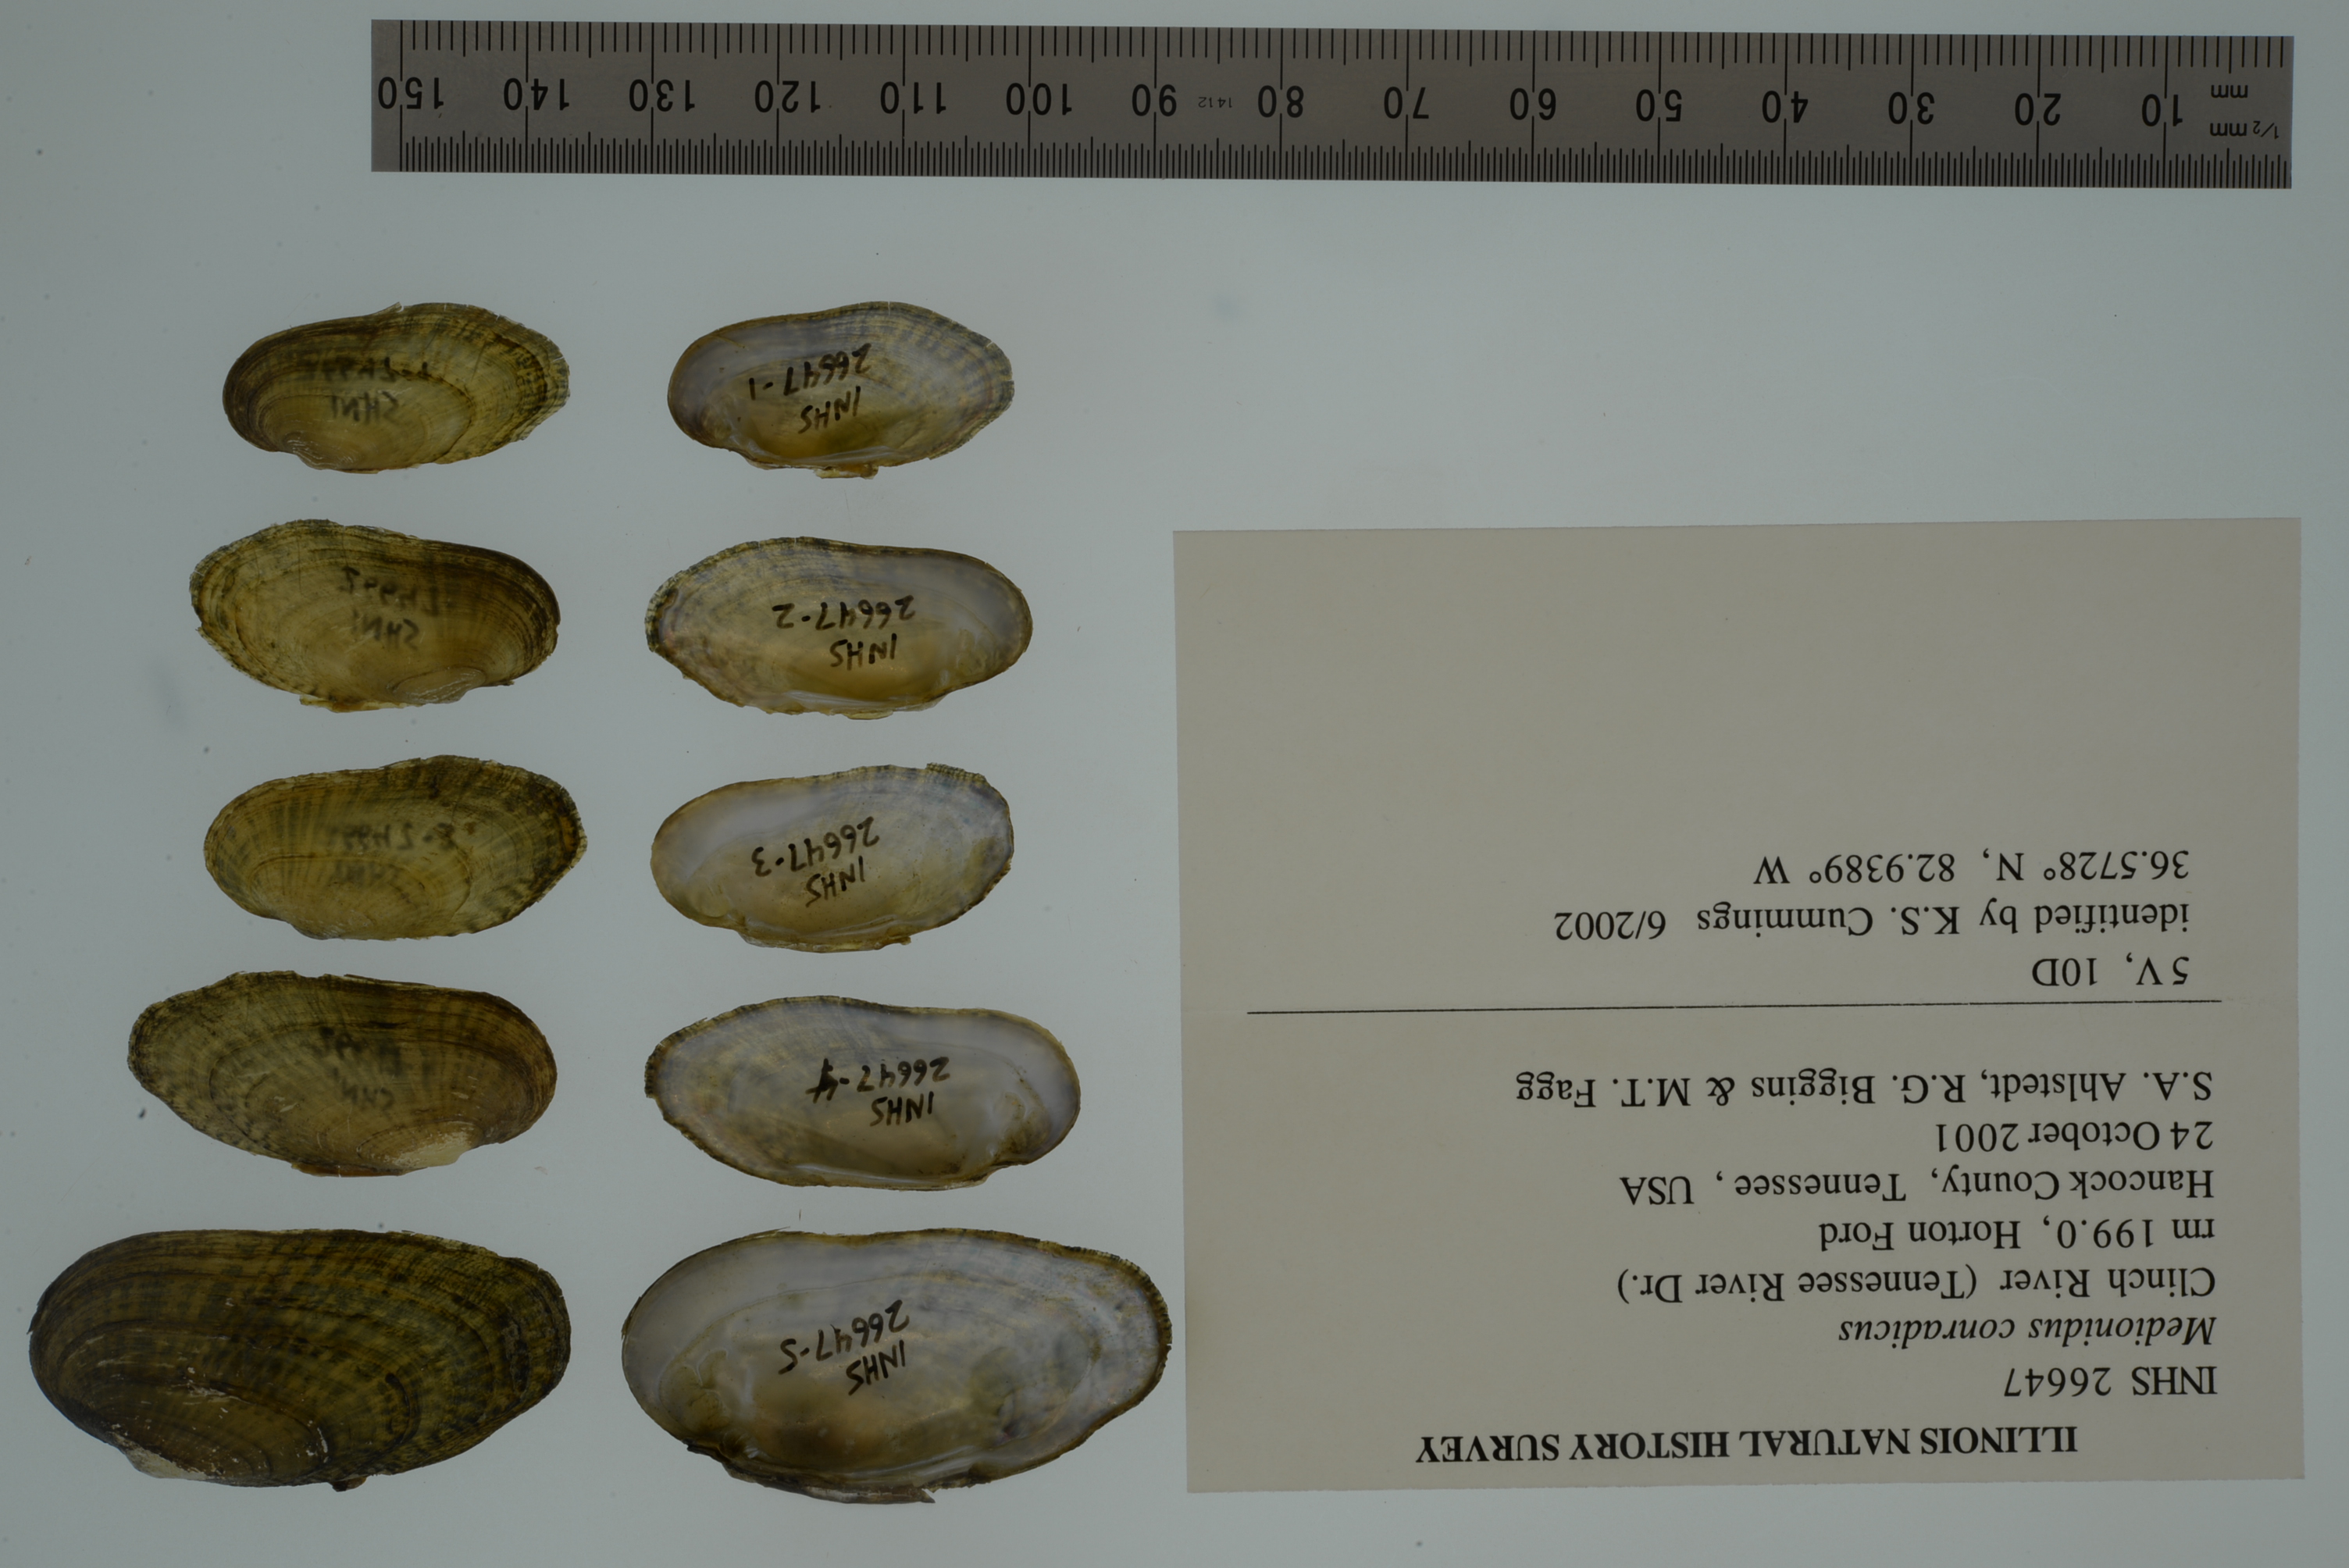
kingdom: Animalia
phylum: Mollusca
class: Bivalvia
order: Unionida
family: Unionidae
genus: Medionidus
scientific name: Medionidus conradicus
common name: Cumberland mocassinshell
